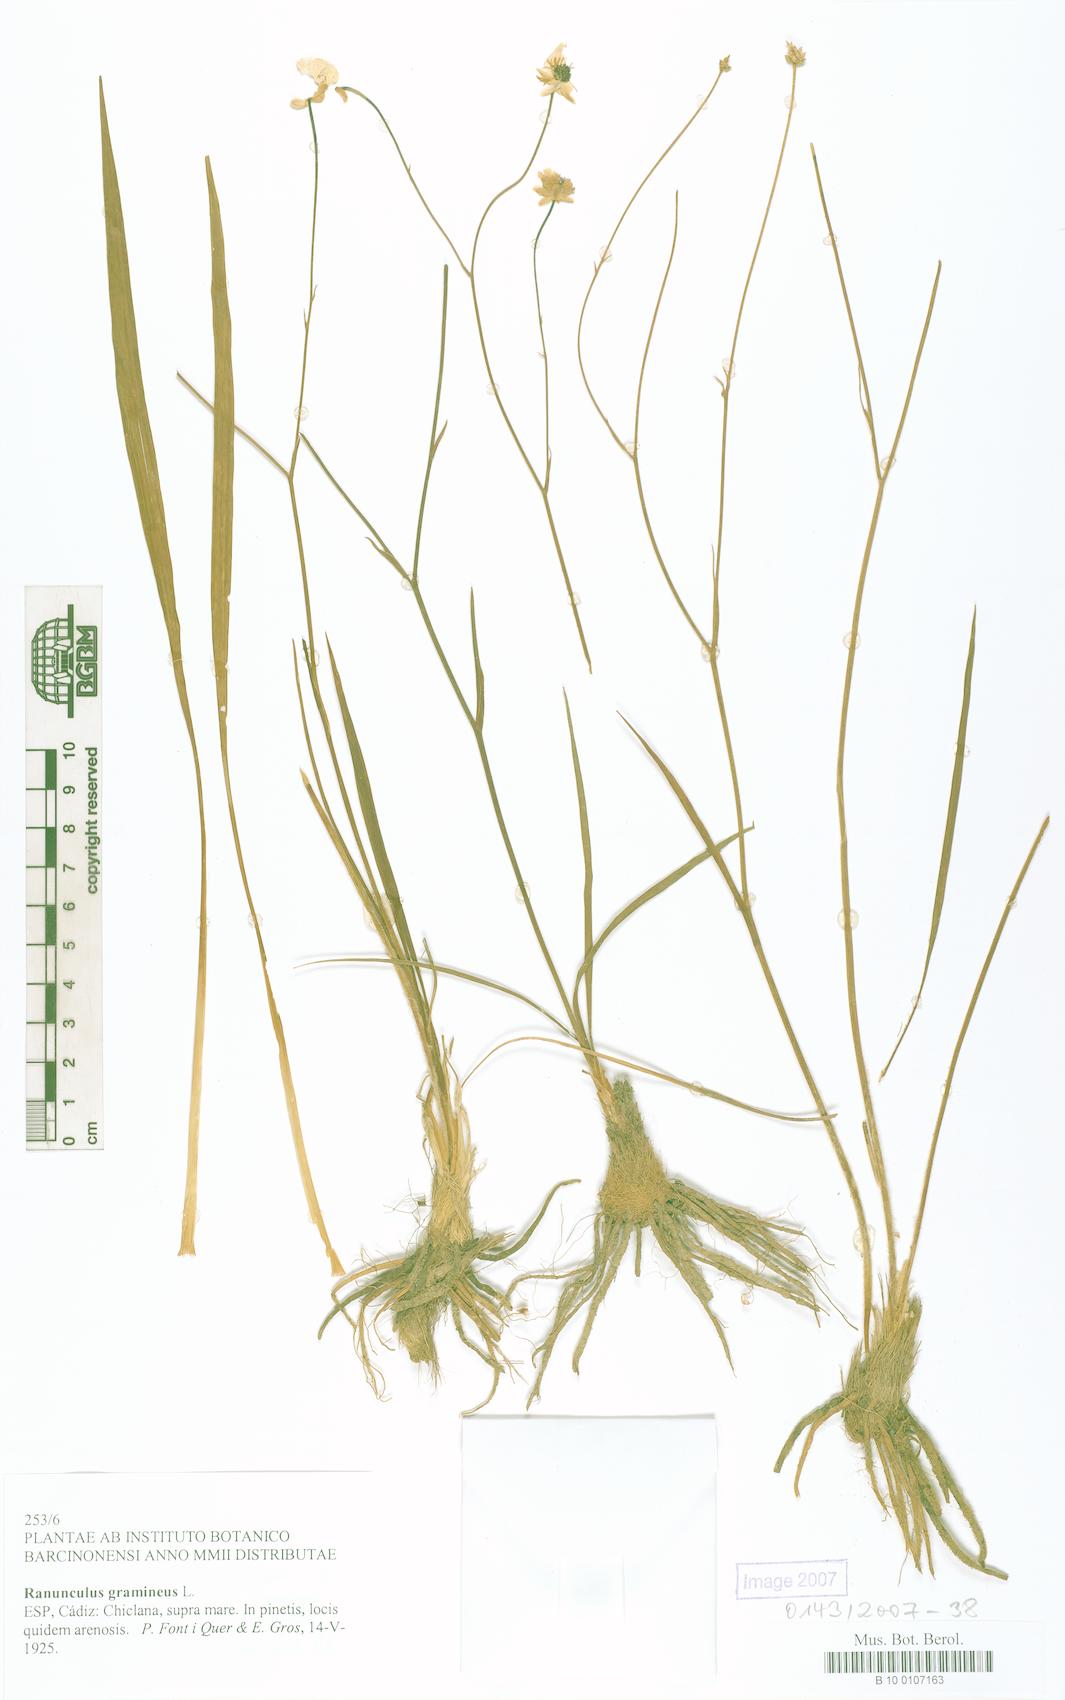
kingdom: Plantae
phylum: Tracheophyta
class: Magnoliopsida
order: Ranunculales
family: Ranunculaceae
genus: Ranunculus
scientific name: Ranunculus gramineus
